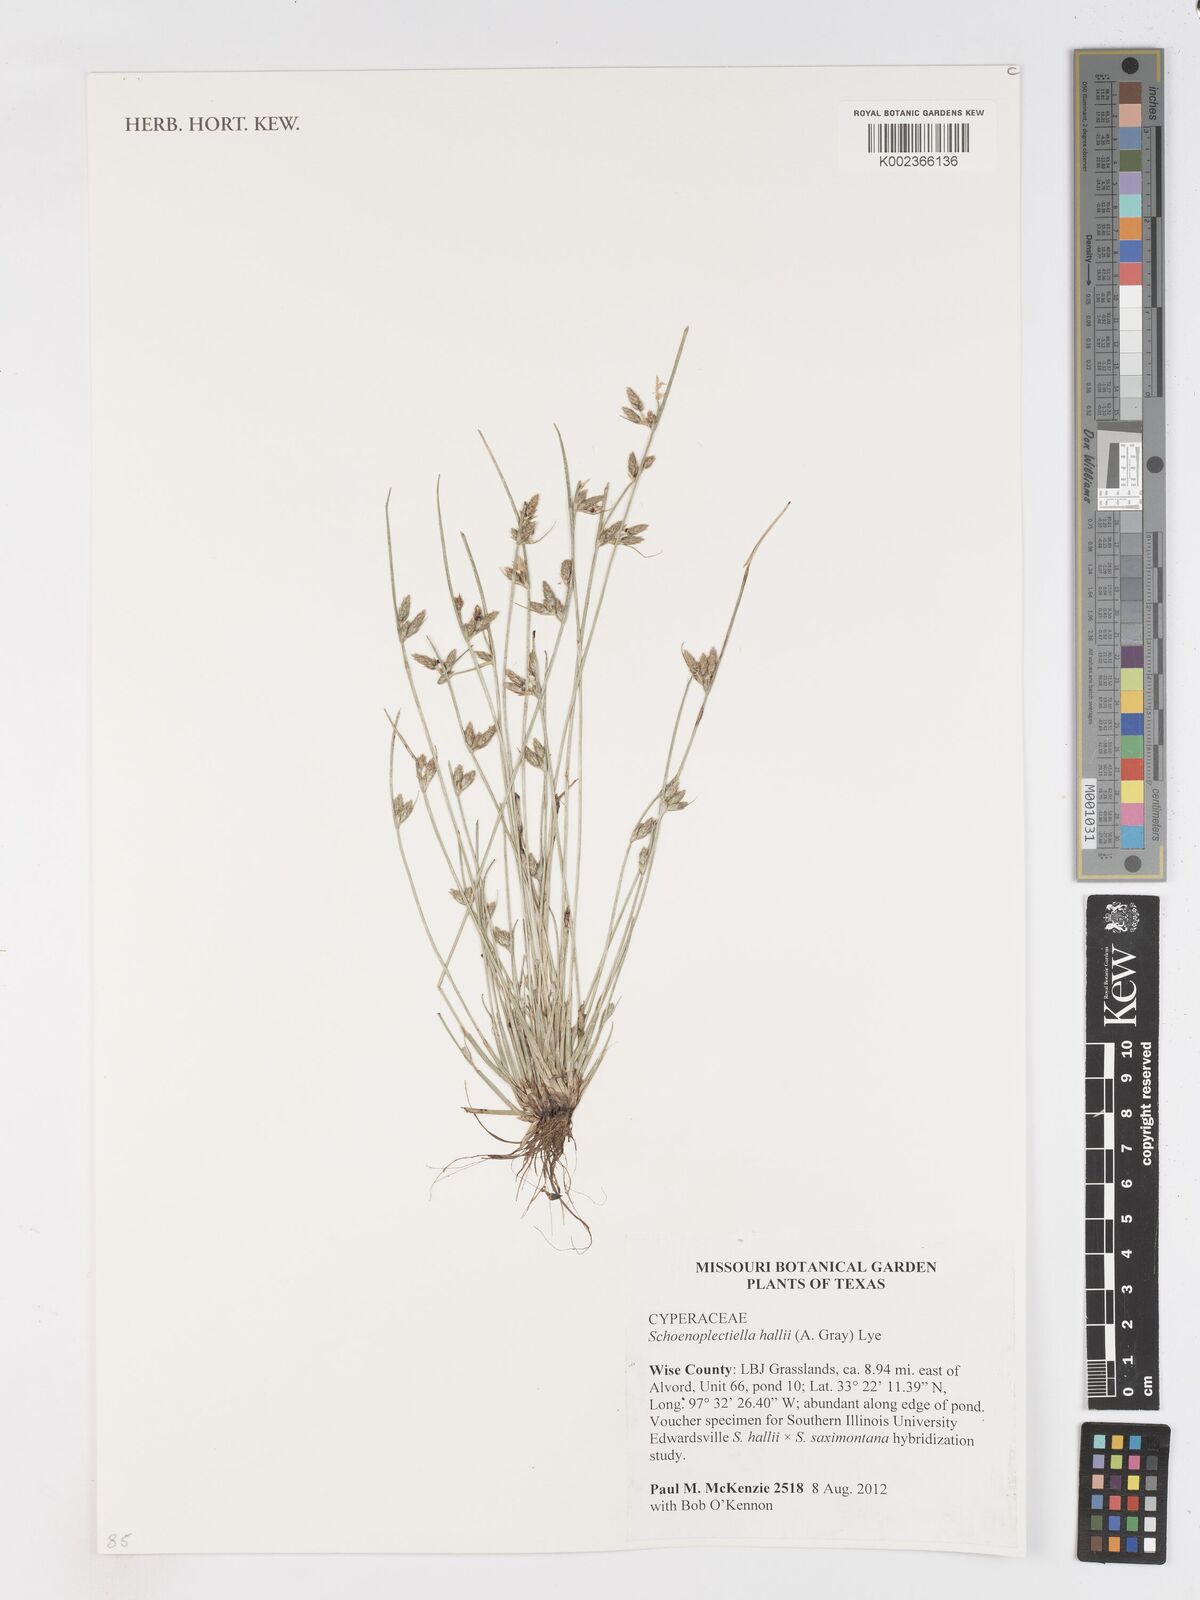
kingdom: Plantae
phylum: Tracheophyta
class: Liliopsida
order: Poales
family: Cyperaceae
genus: Schoenoplectiella
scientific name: Schoenoplectiella hallii
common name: Hall's bullrush
